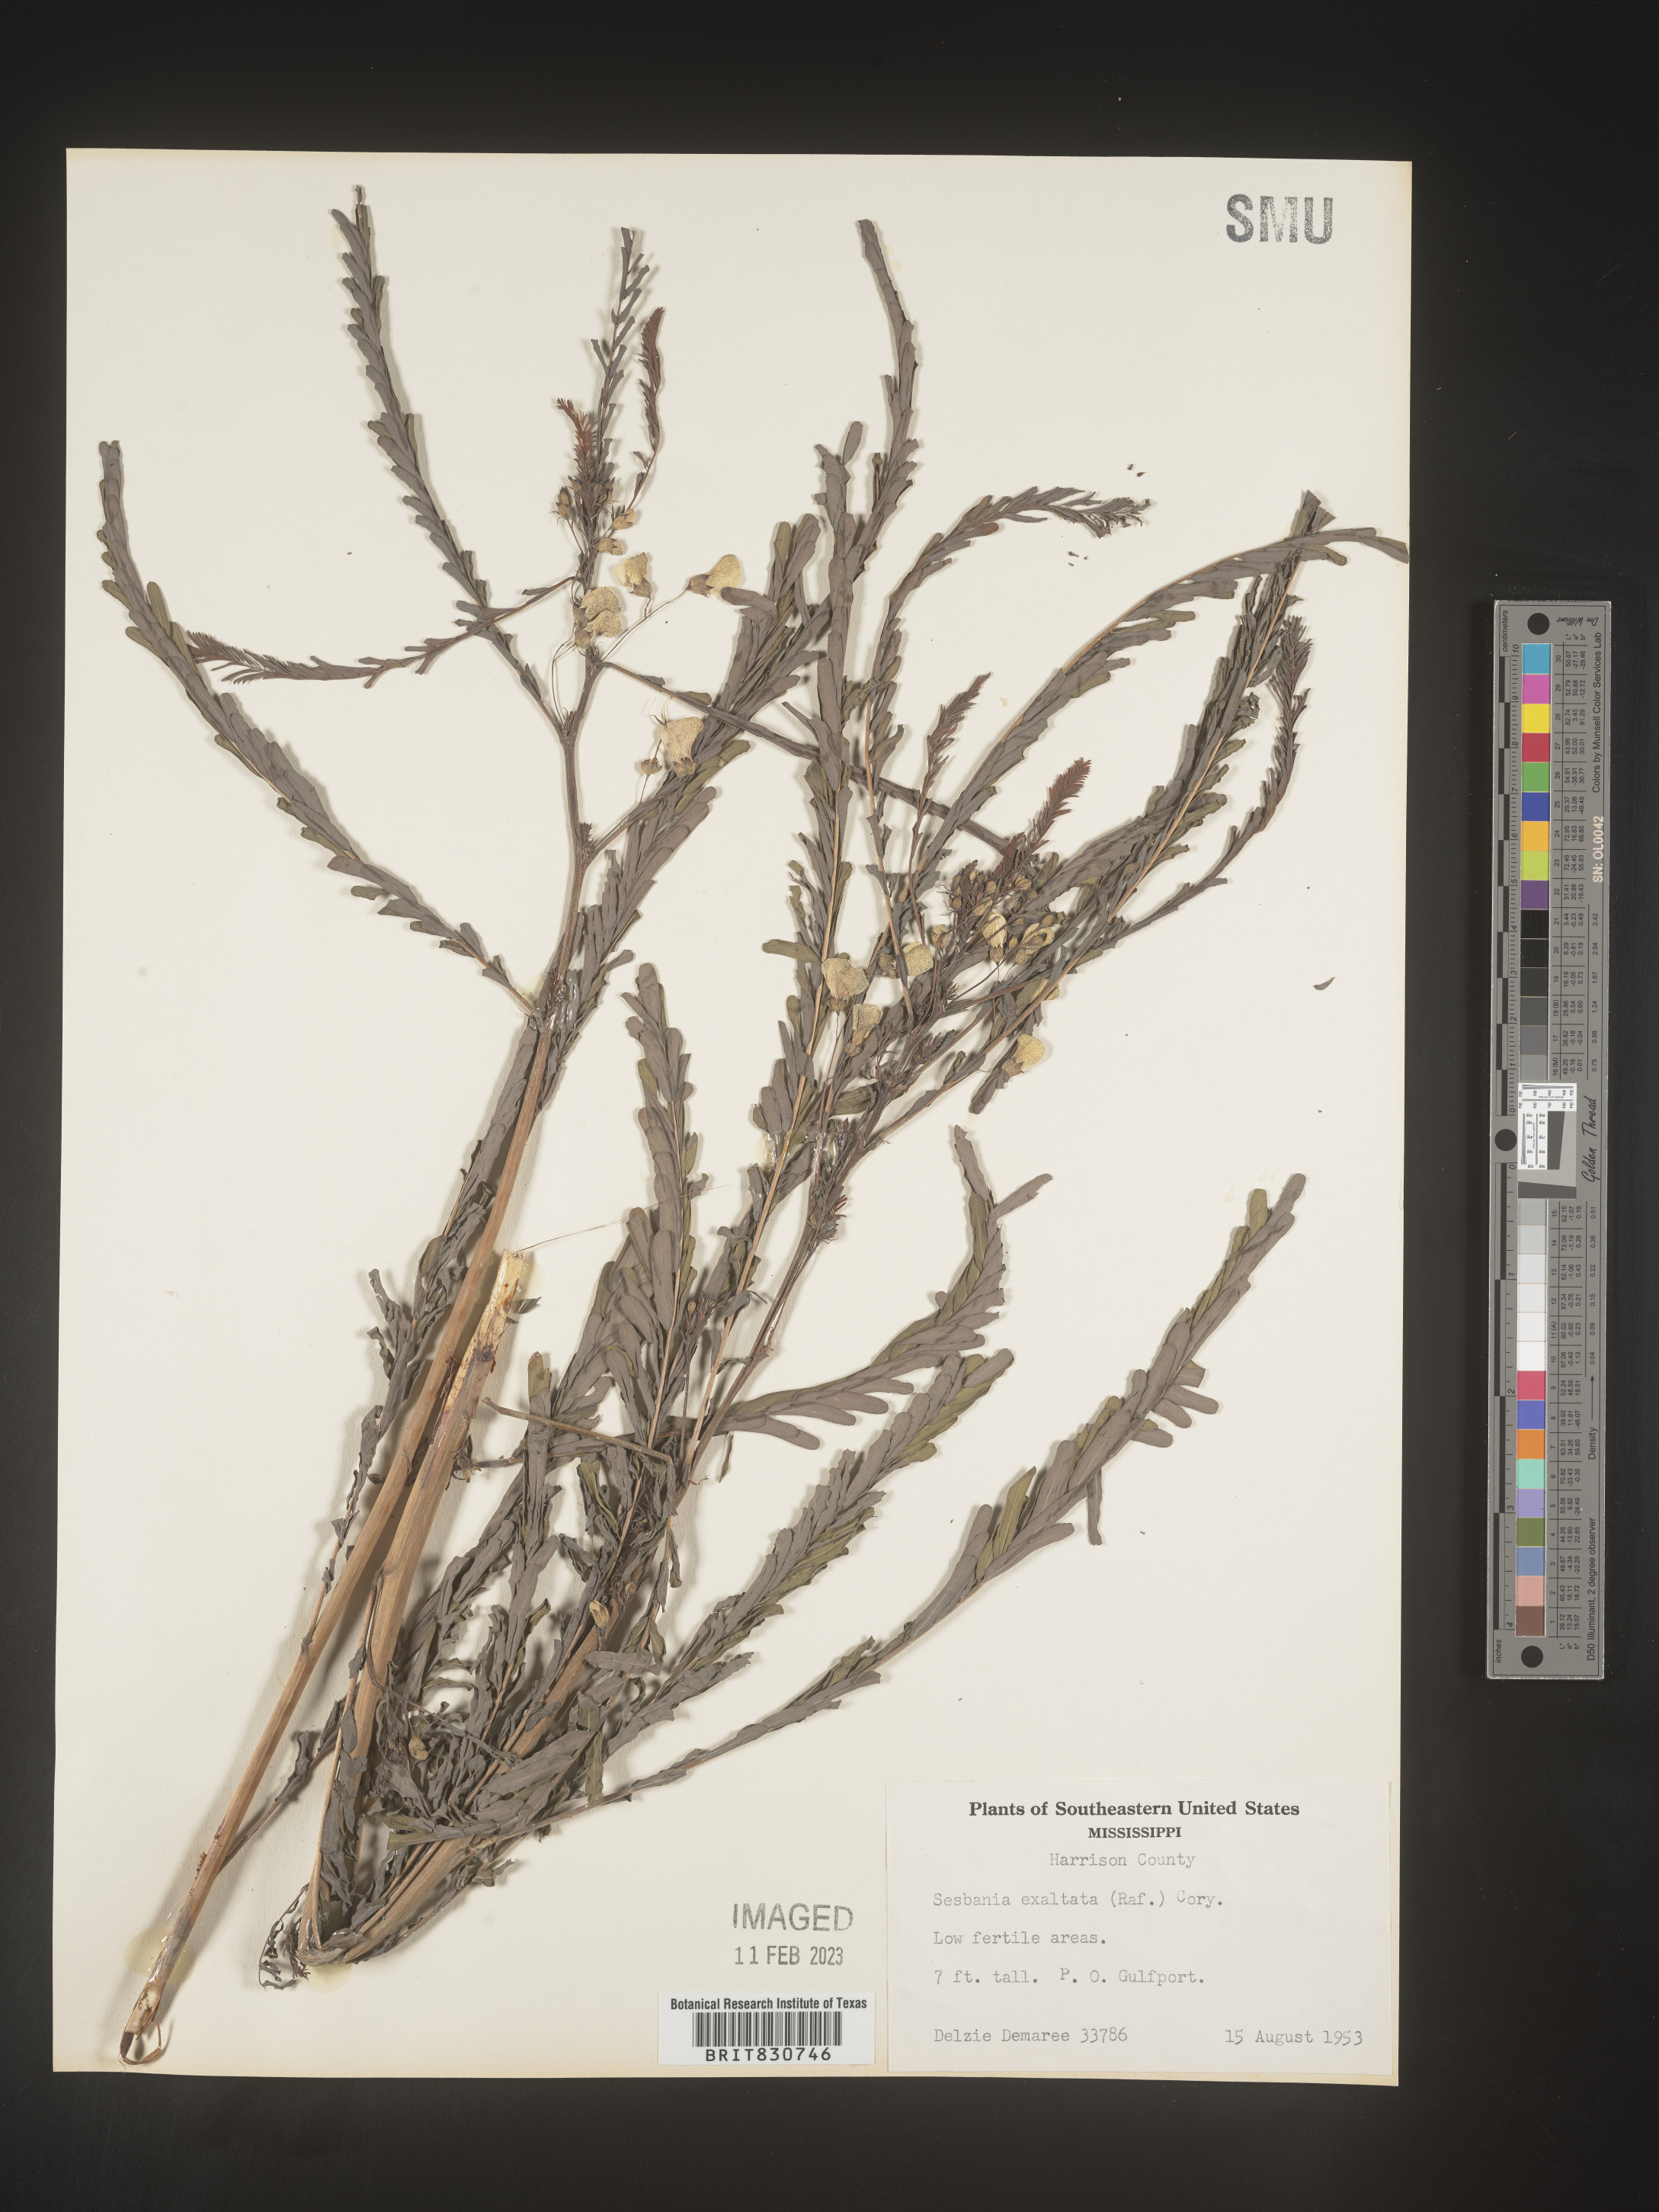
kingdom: Plantae
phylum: Tracheophyta
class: Magnoliopsida
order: Fabales
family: Fabaceae
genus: Sesbania
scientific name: Sesbania vesicaria
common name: Bagpod
